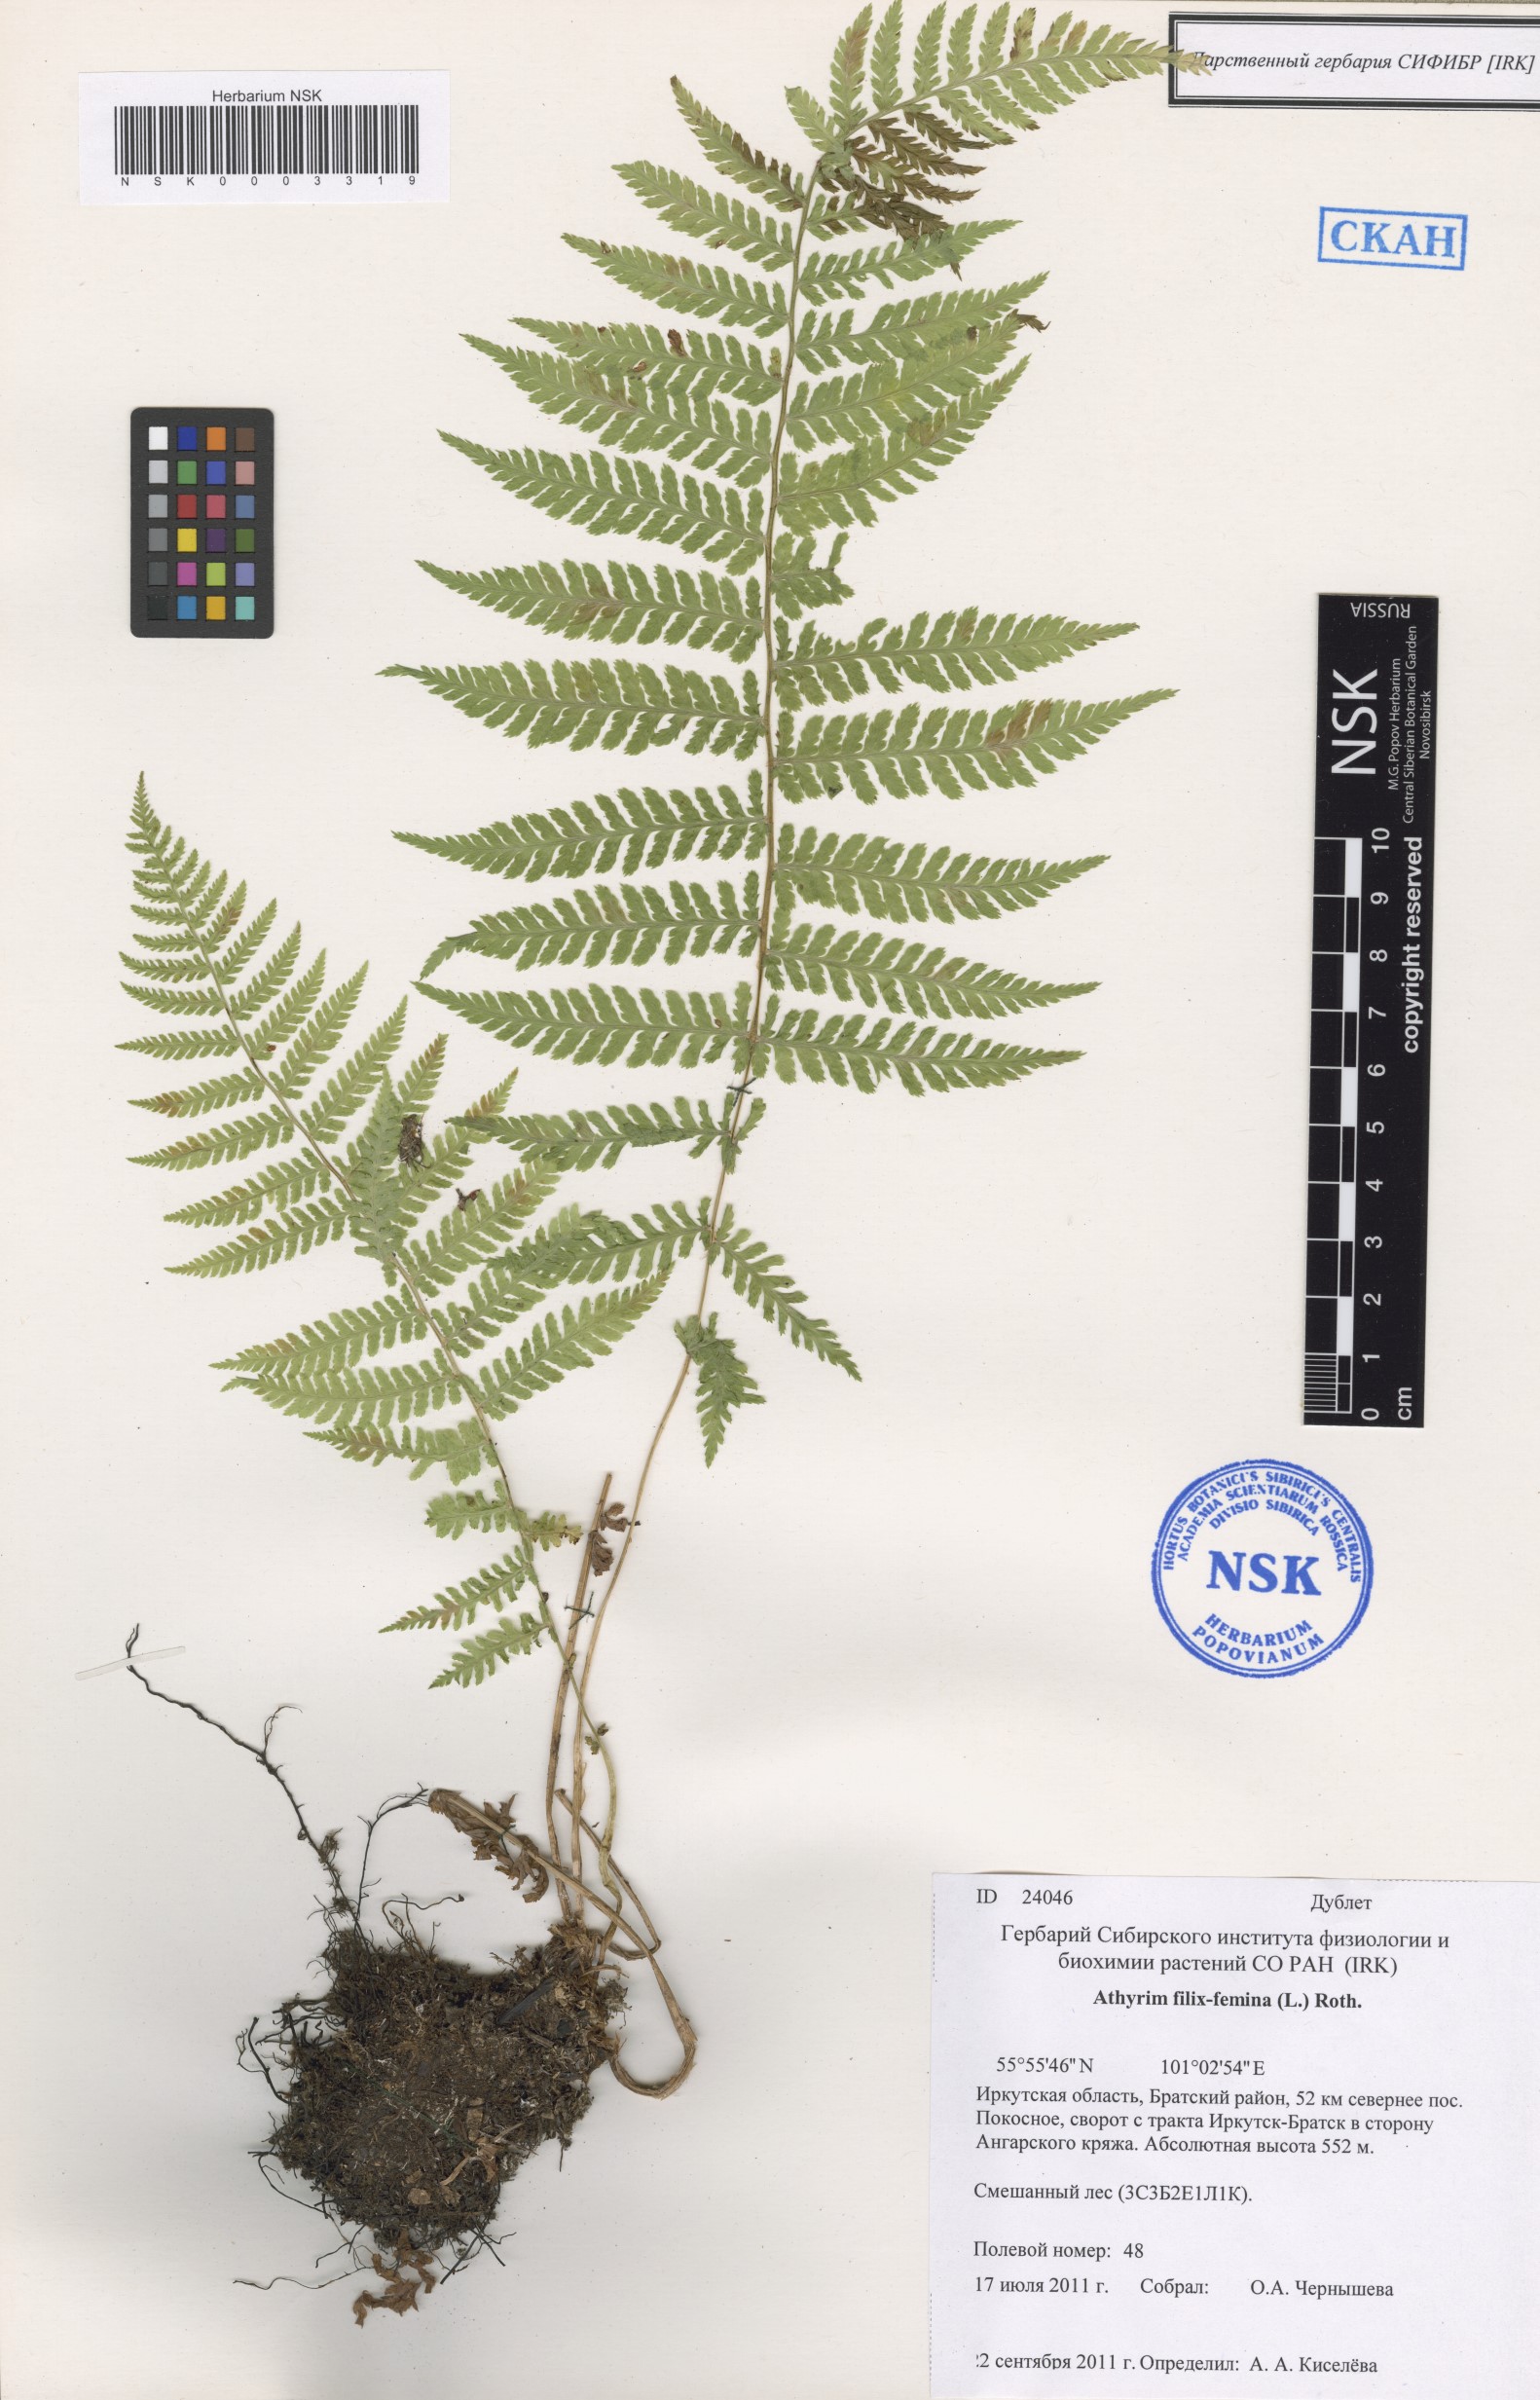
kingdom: Plantae
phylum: Tracheophyta
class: Polypodiopsida
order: Polypodiales
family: Athyriaceae
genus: Athyrium
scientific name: Athyrium filix-femina
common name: Lady fern
